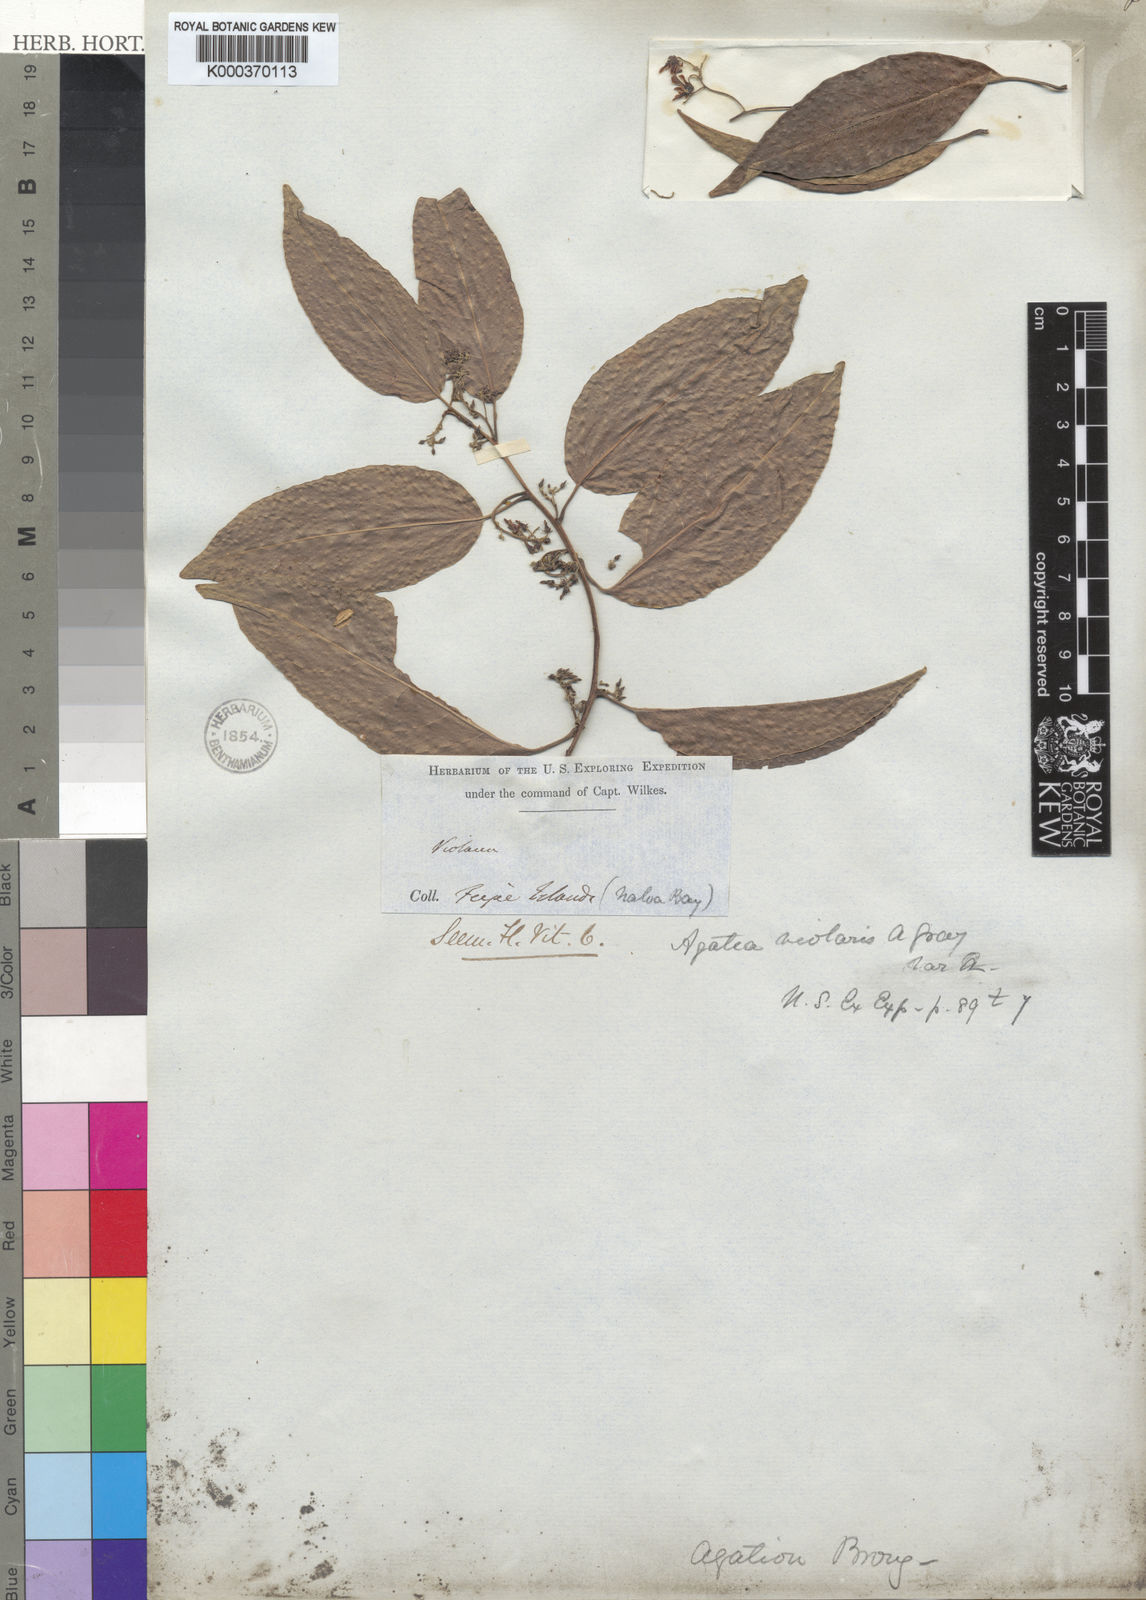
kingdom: Plantae
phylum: Tracheophyta
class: Magnoliopsida
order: Malpighiales
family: Violaceae
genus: Agatea
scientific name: Agatea violaris
